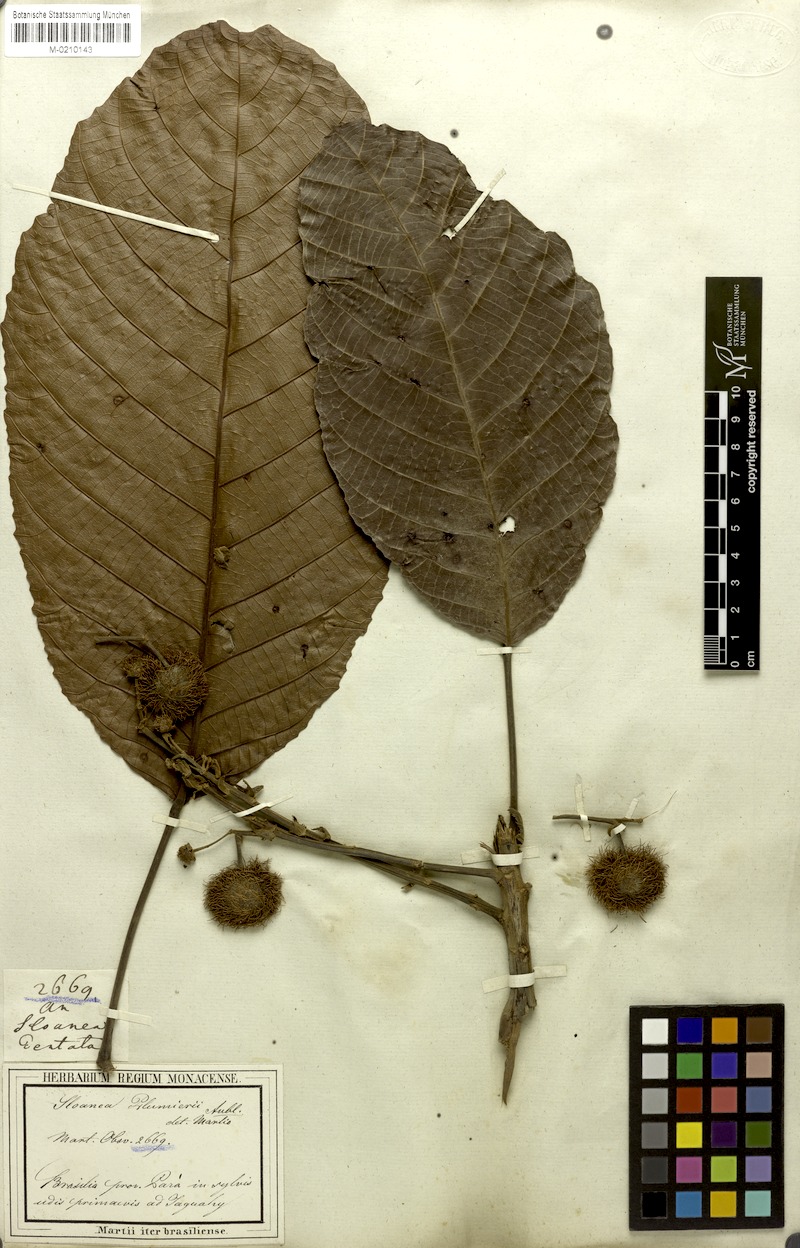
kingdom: Plantae
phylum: Tracheophyta
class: Magnoliopsida
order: Oxalidales
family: Elaeocarpaceae
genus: Sloanea
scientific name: Sloanea dentata
